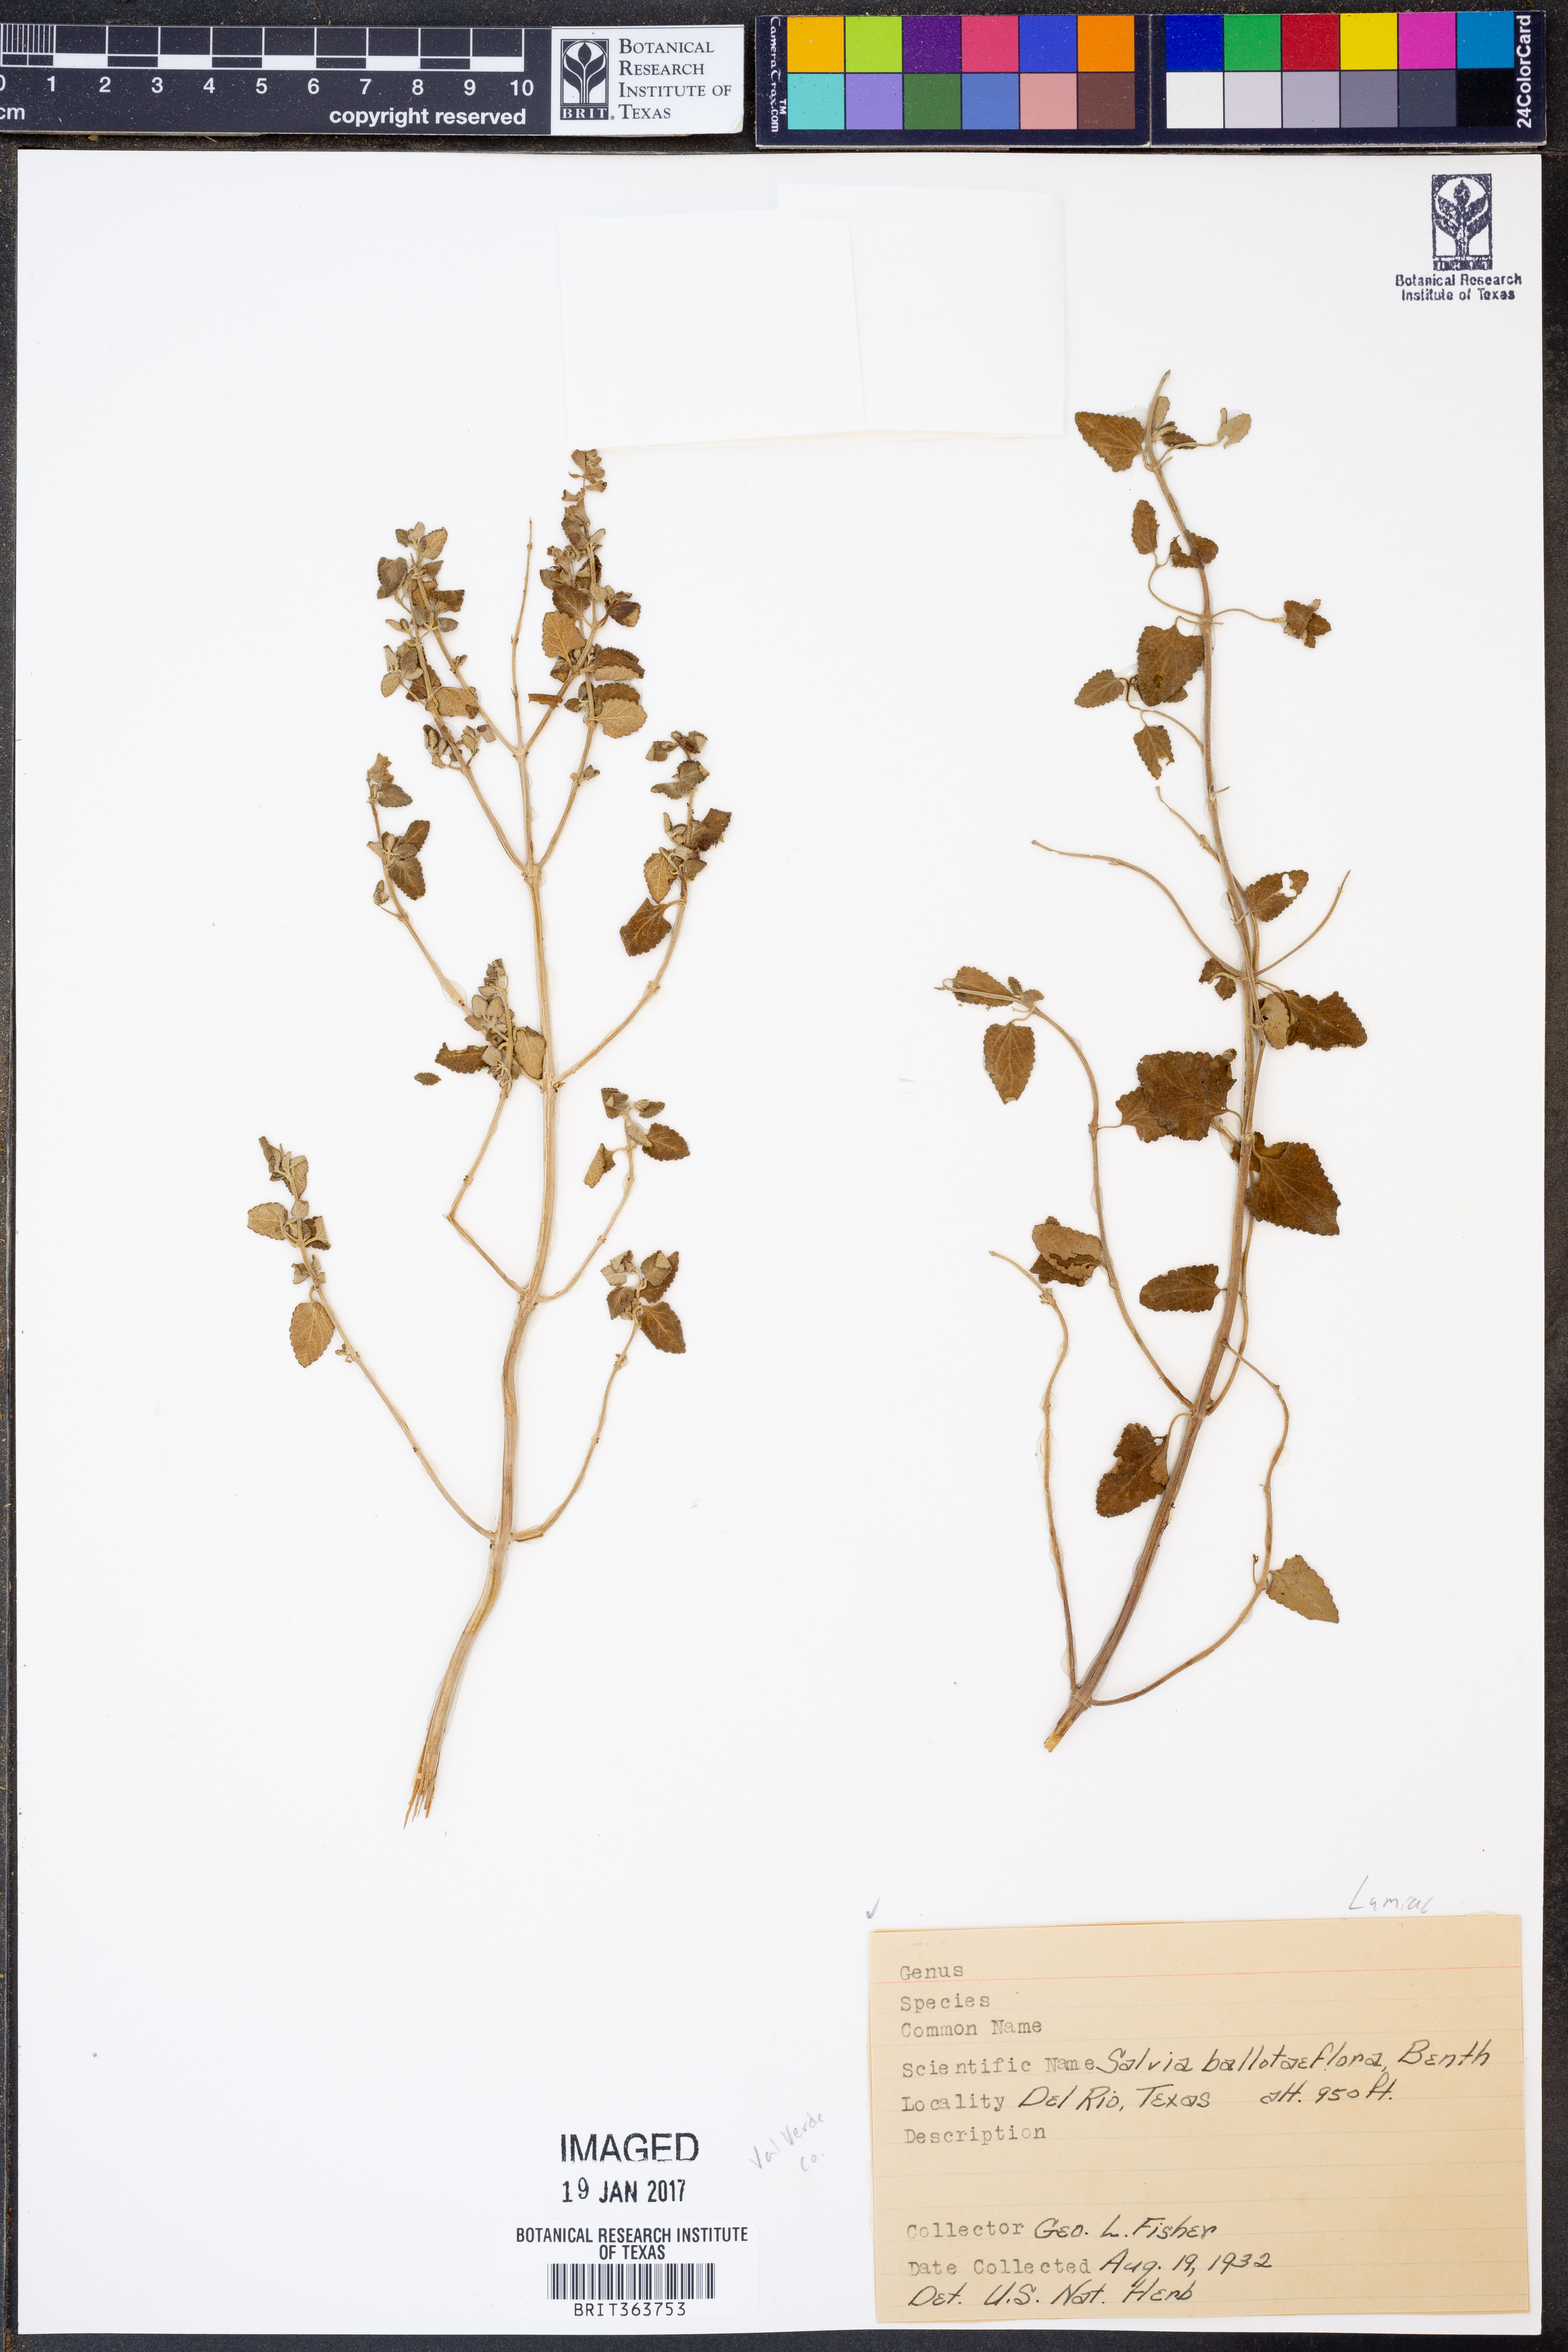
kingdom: Plantae
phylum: Tracheophyta
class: Magnoliopsida
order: Lamiales
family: Lamiaceae
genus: Salvia
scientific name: Salvia ballotiflora
